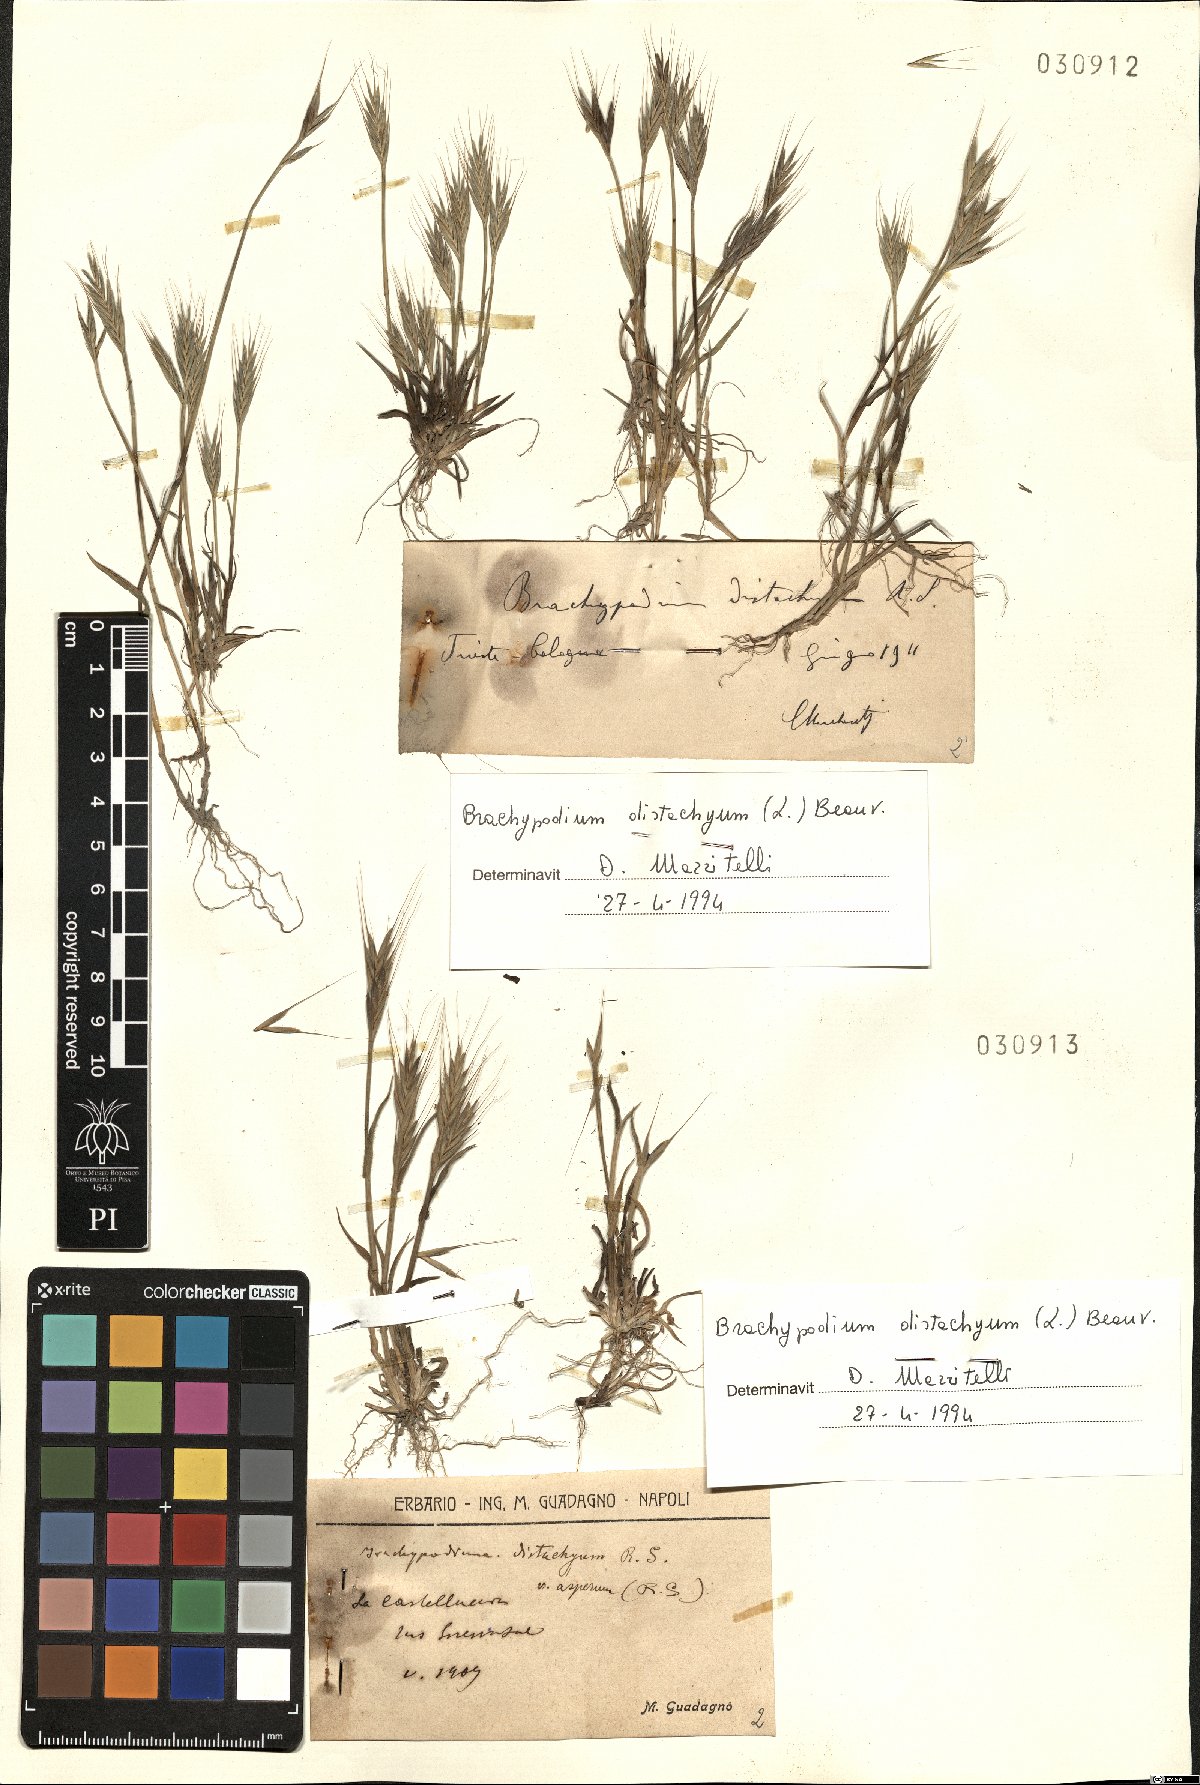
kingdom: Plantae
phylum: Tracheophyta
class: Liliopsida
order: Poales
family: Poaceae
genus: Brachypodium
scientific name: Brachypodium distachyon
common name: Stiff brome
